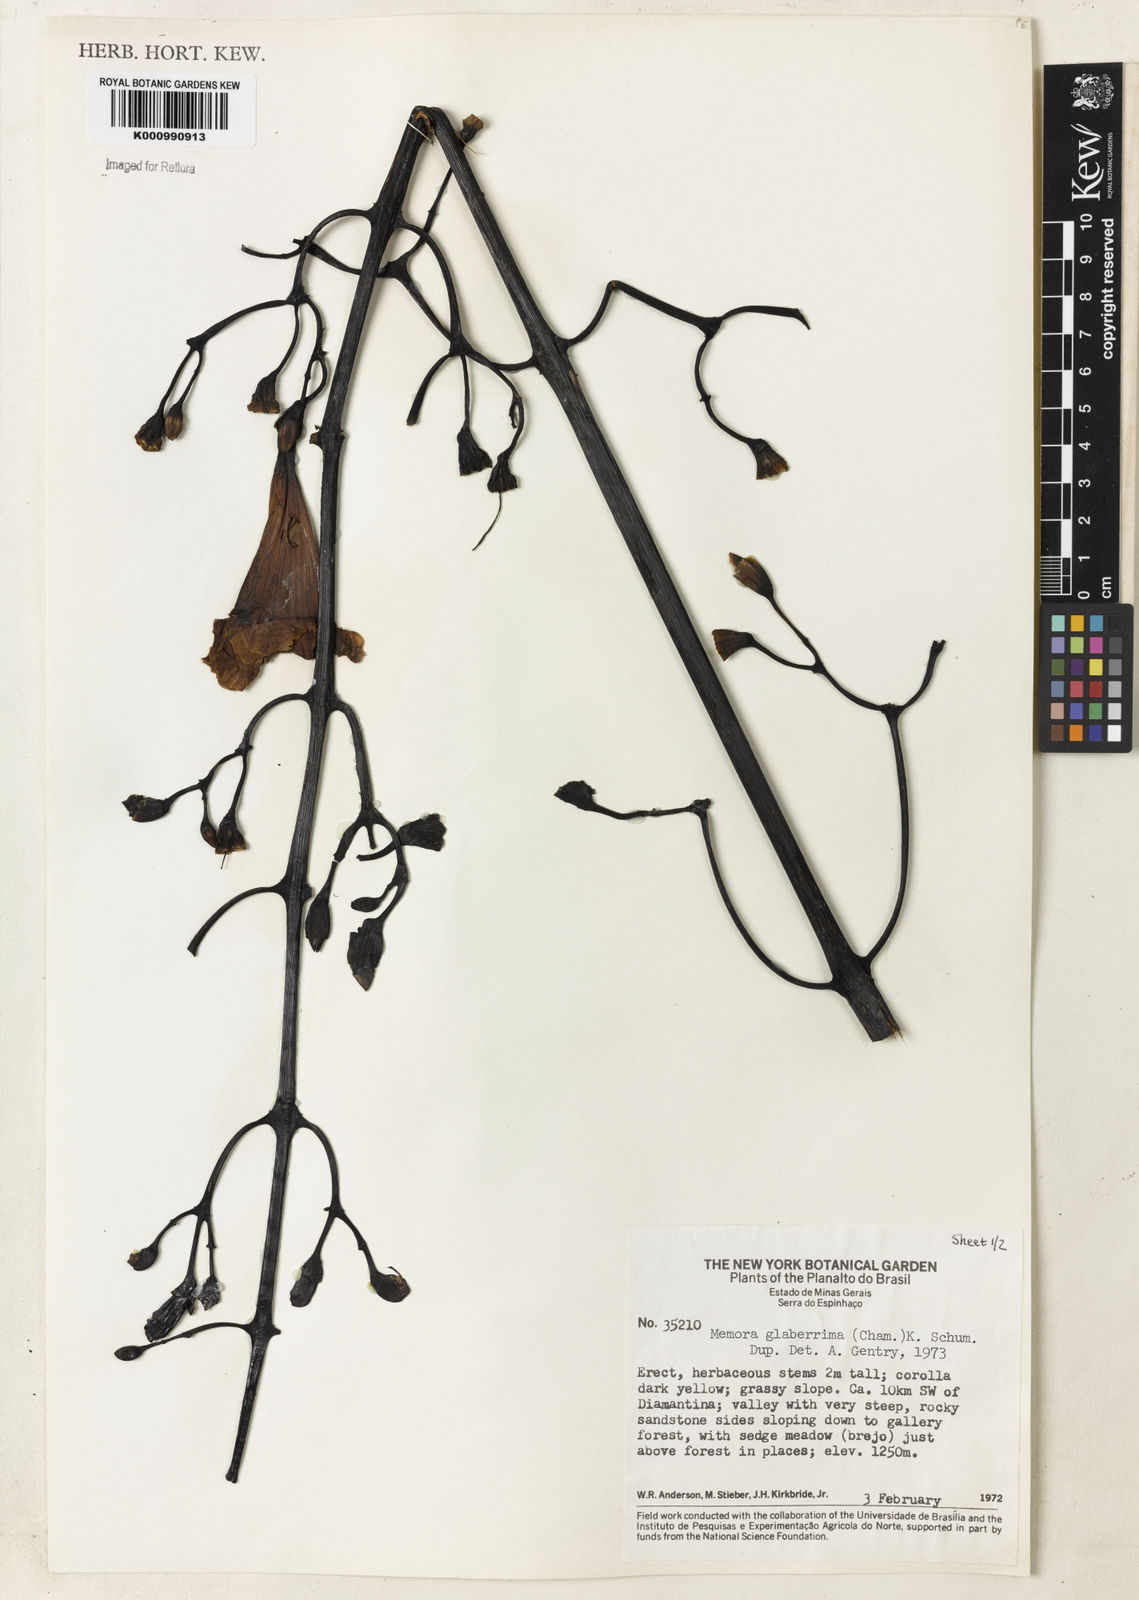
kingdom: Plantae
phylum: Tracheophyta
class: Magnoliopsida
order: Lamiales
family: Bignoniaceae
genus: Adenocalymma
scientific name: Adenocalymma pedunculatum
